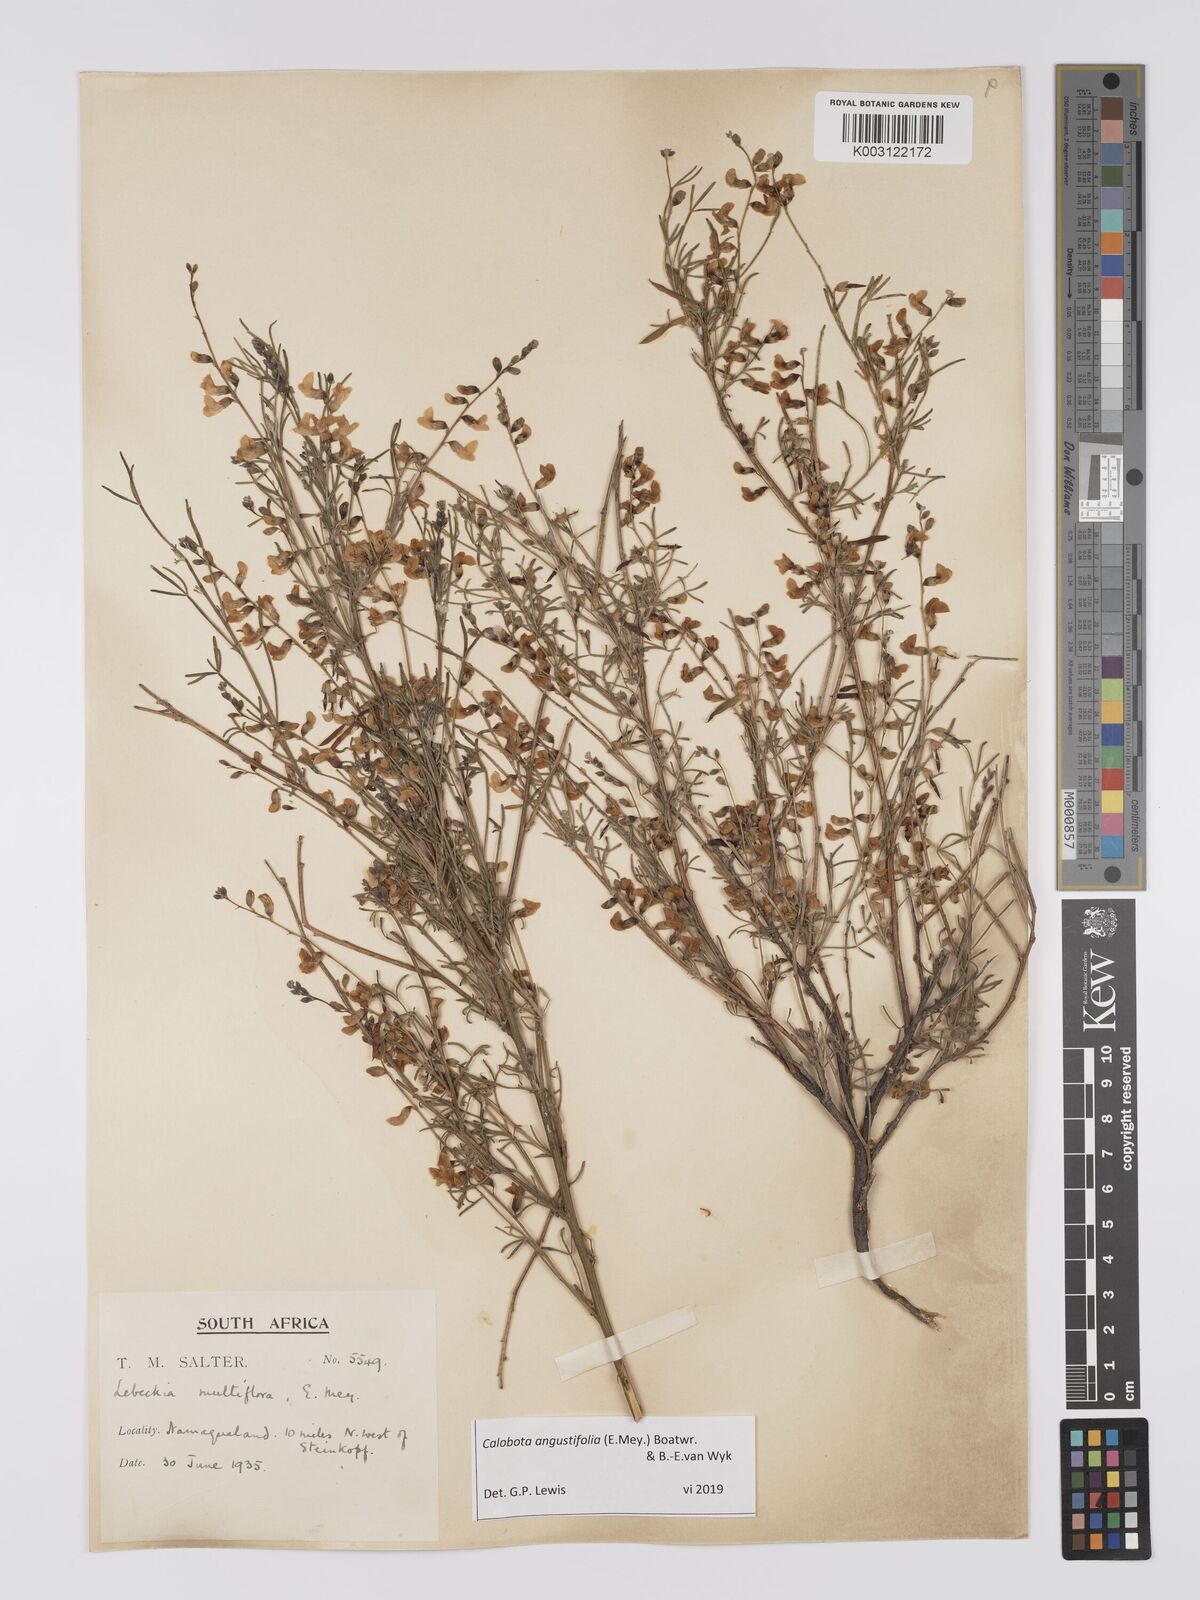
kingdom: Plantae
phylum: Tracheophyta
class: Magnoliopsida
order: Fabales
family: Fabaceae
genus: Calobota
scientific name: Calobota angustifolia
